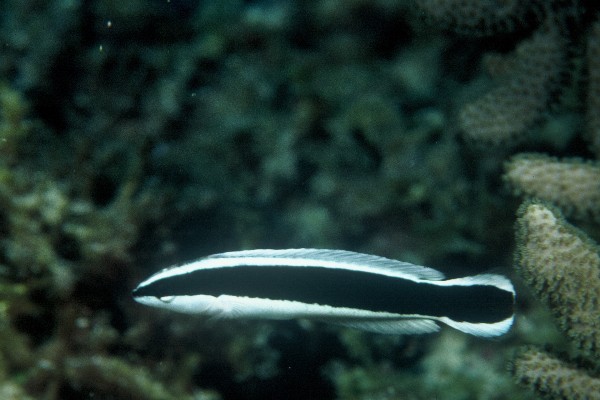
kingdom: Animalia
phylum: Chordata
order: Perciformes
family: Labridae
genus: Coris
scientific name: Coris picta
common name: Combfish
